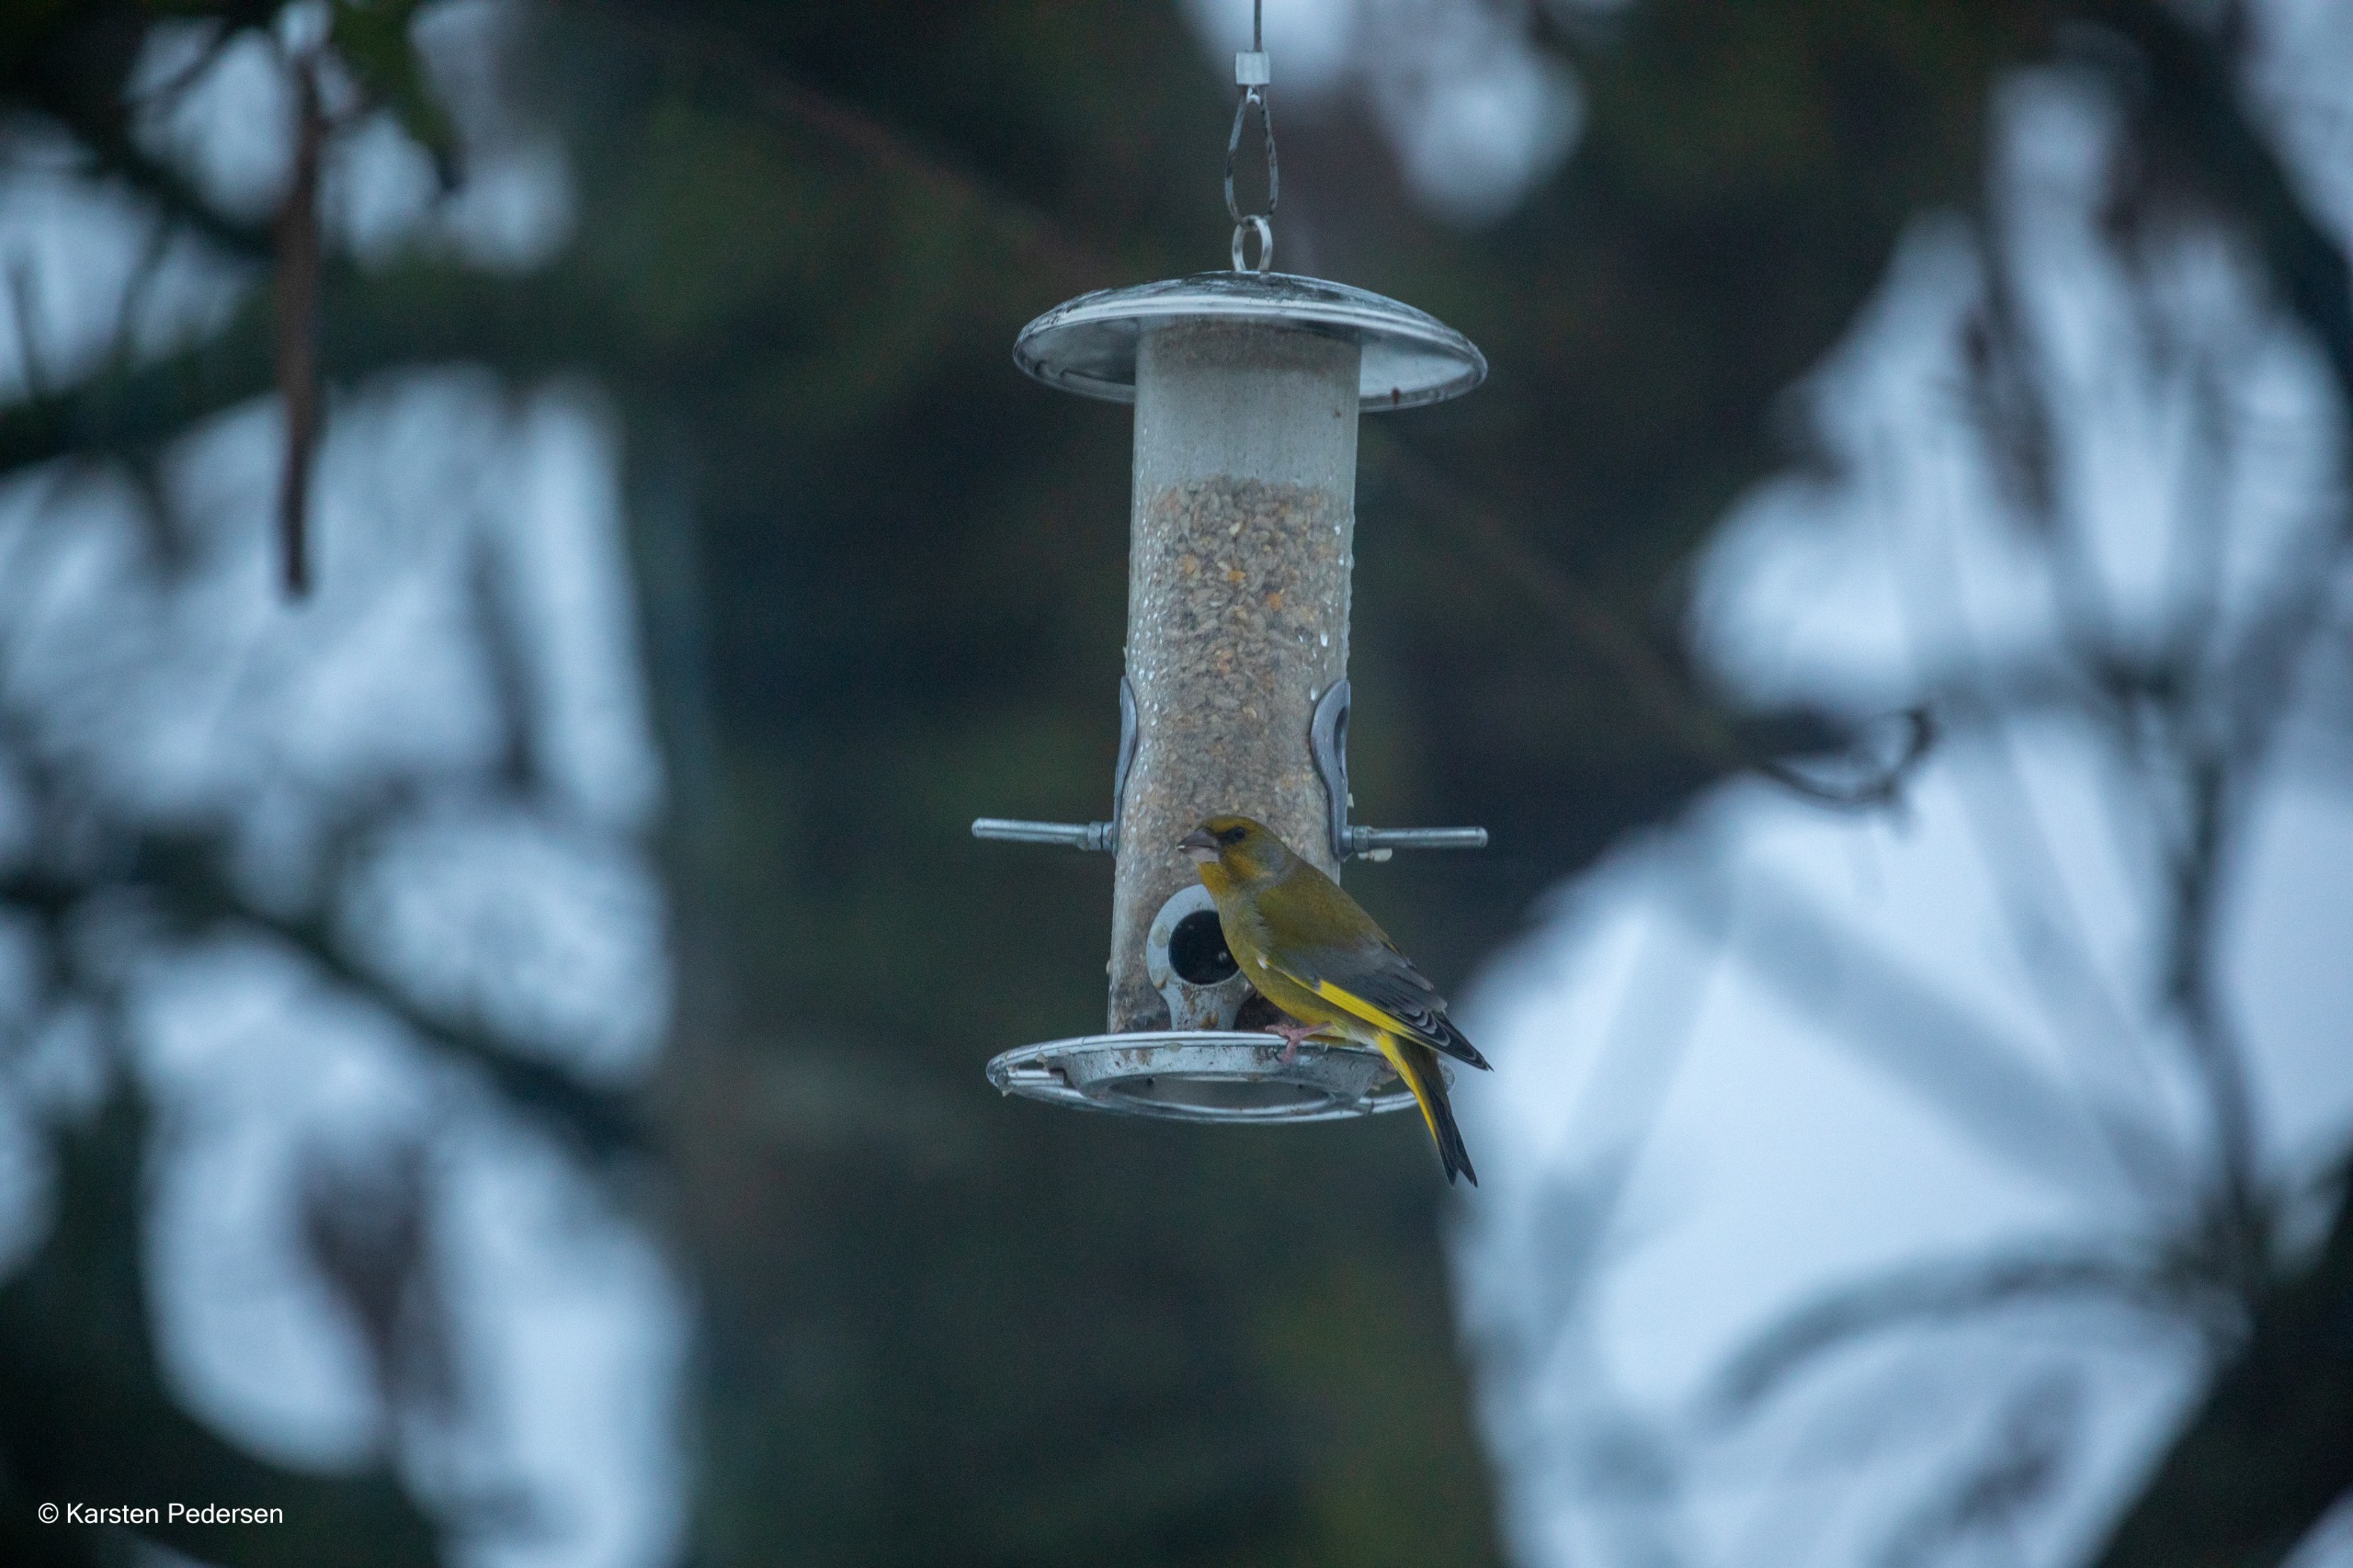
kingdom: Plantae
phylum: Tracheophyta
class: Liliopsida
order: Poales
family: Poaceae
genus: Chloris
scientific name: Chloris chloris
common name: Grønirisk
